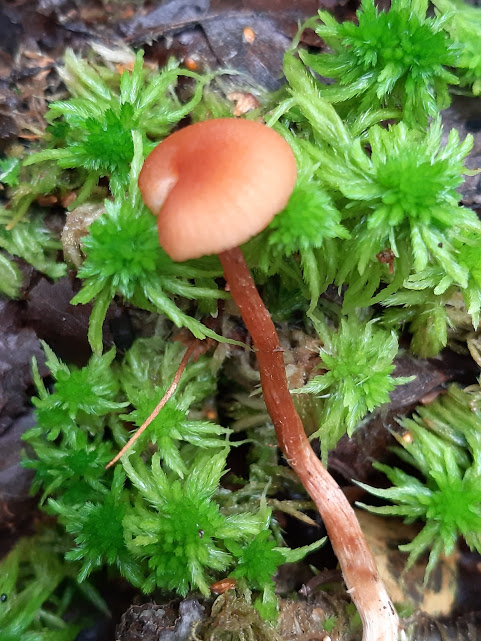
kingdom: Fungi
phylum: Basidiomycota
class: Agaricomycetes
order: Agaricales
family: Hydnangiaceae
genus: Laccaria
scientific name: Laccaria laccata
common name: rød ametysthat
